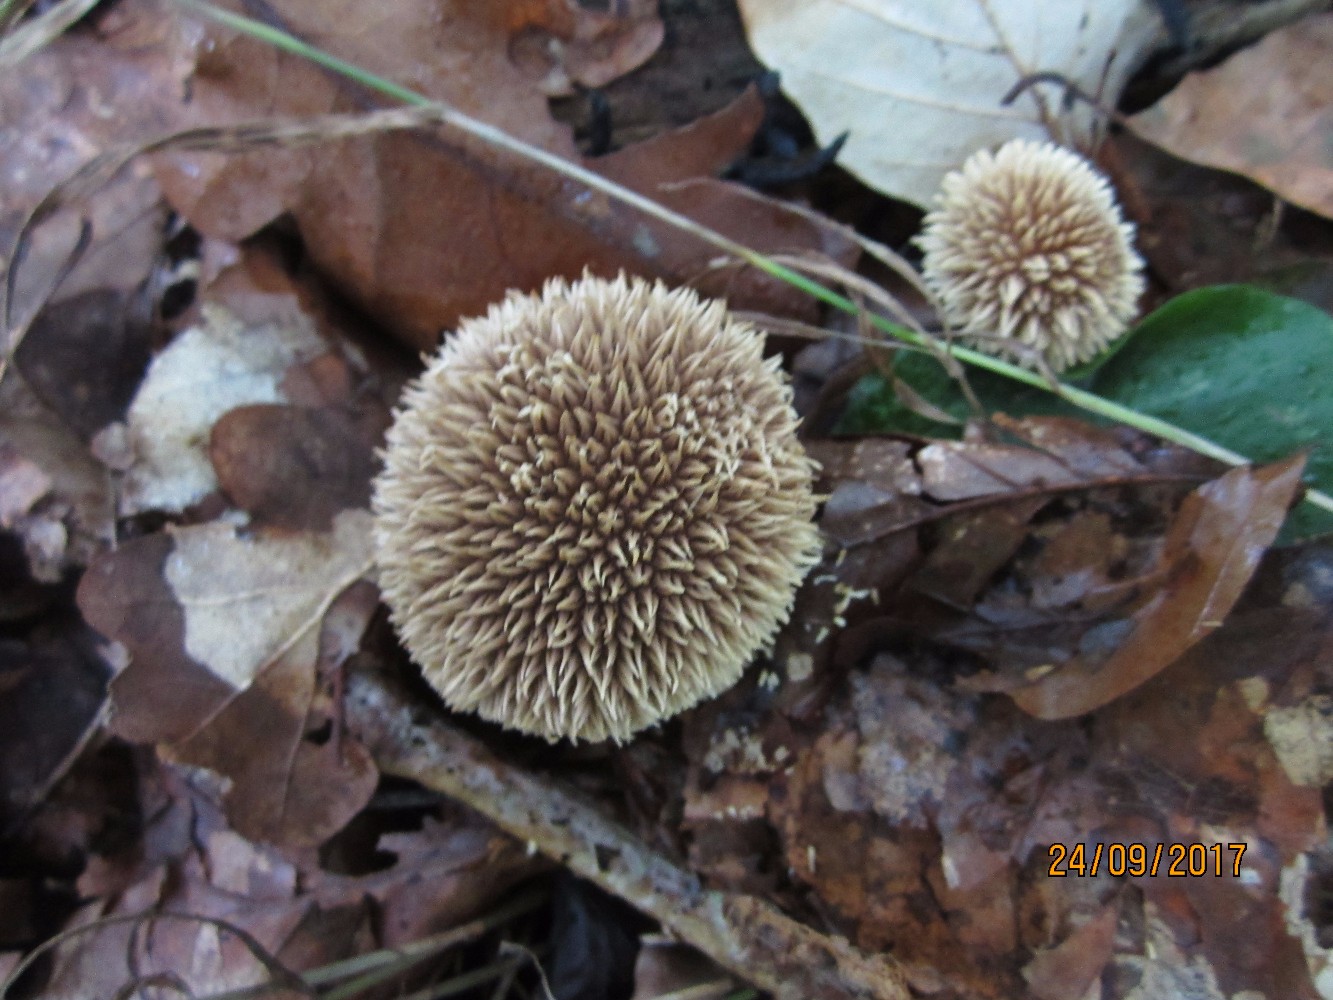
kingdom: Fungi
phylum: Basidiomycota
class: Agaricomycetes
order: Agaricales
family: Lycoperdaceae
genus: Lycoperdon
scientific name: Lycoperdon echinatum
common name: pindsvine-støvbold
